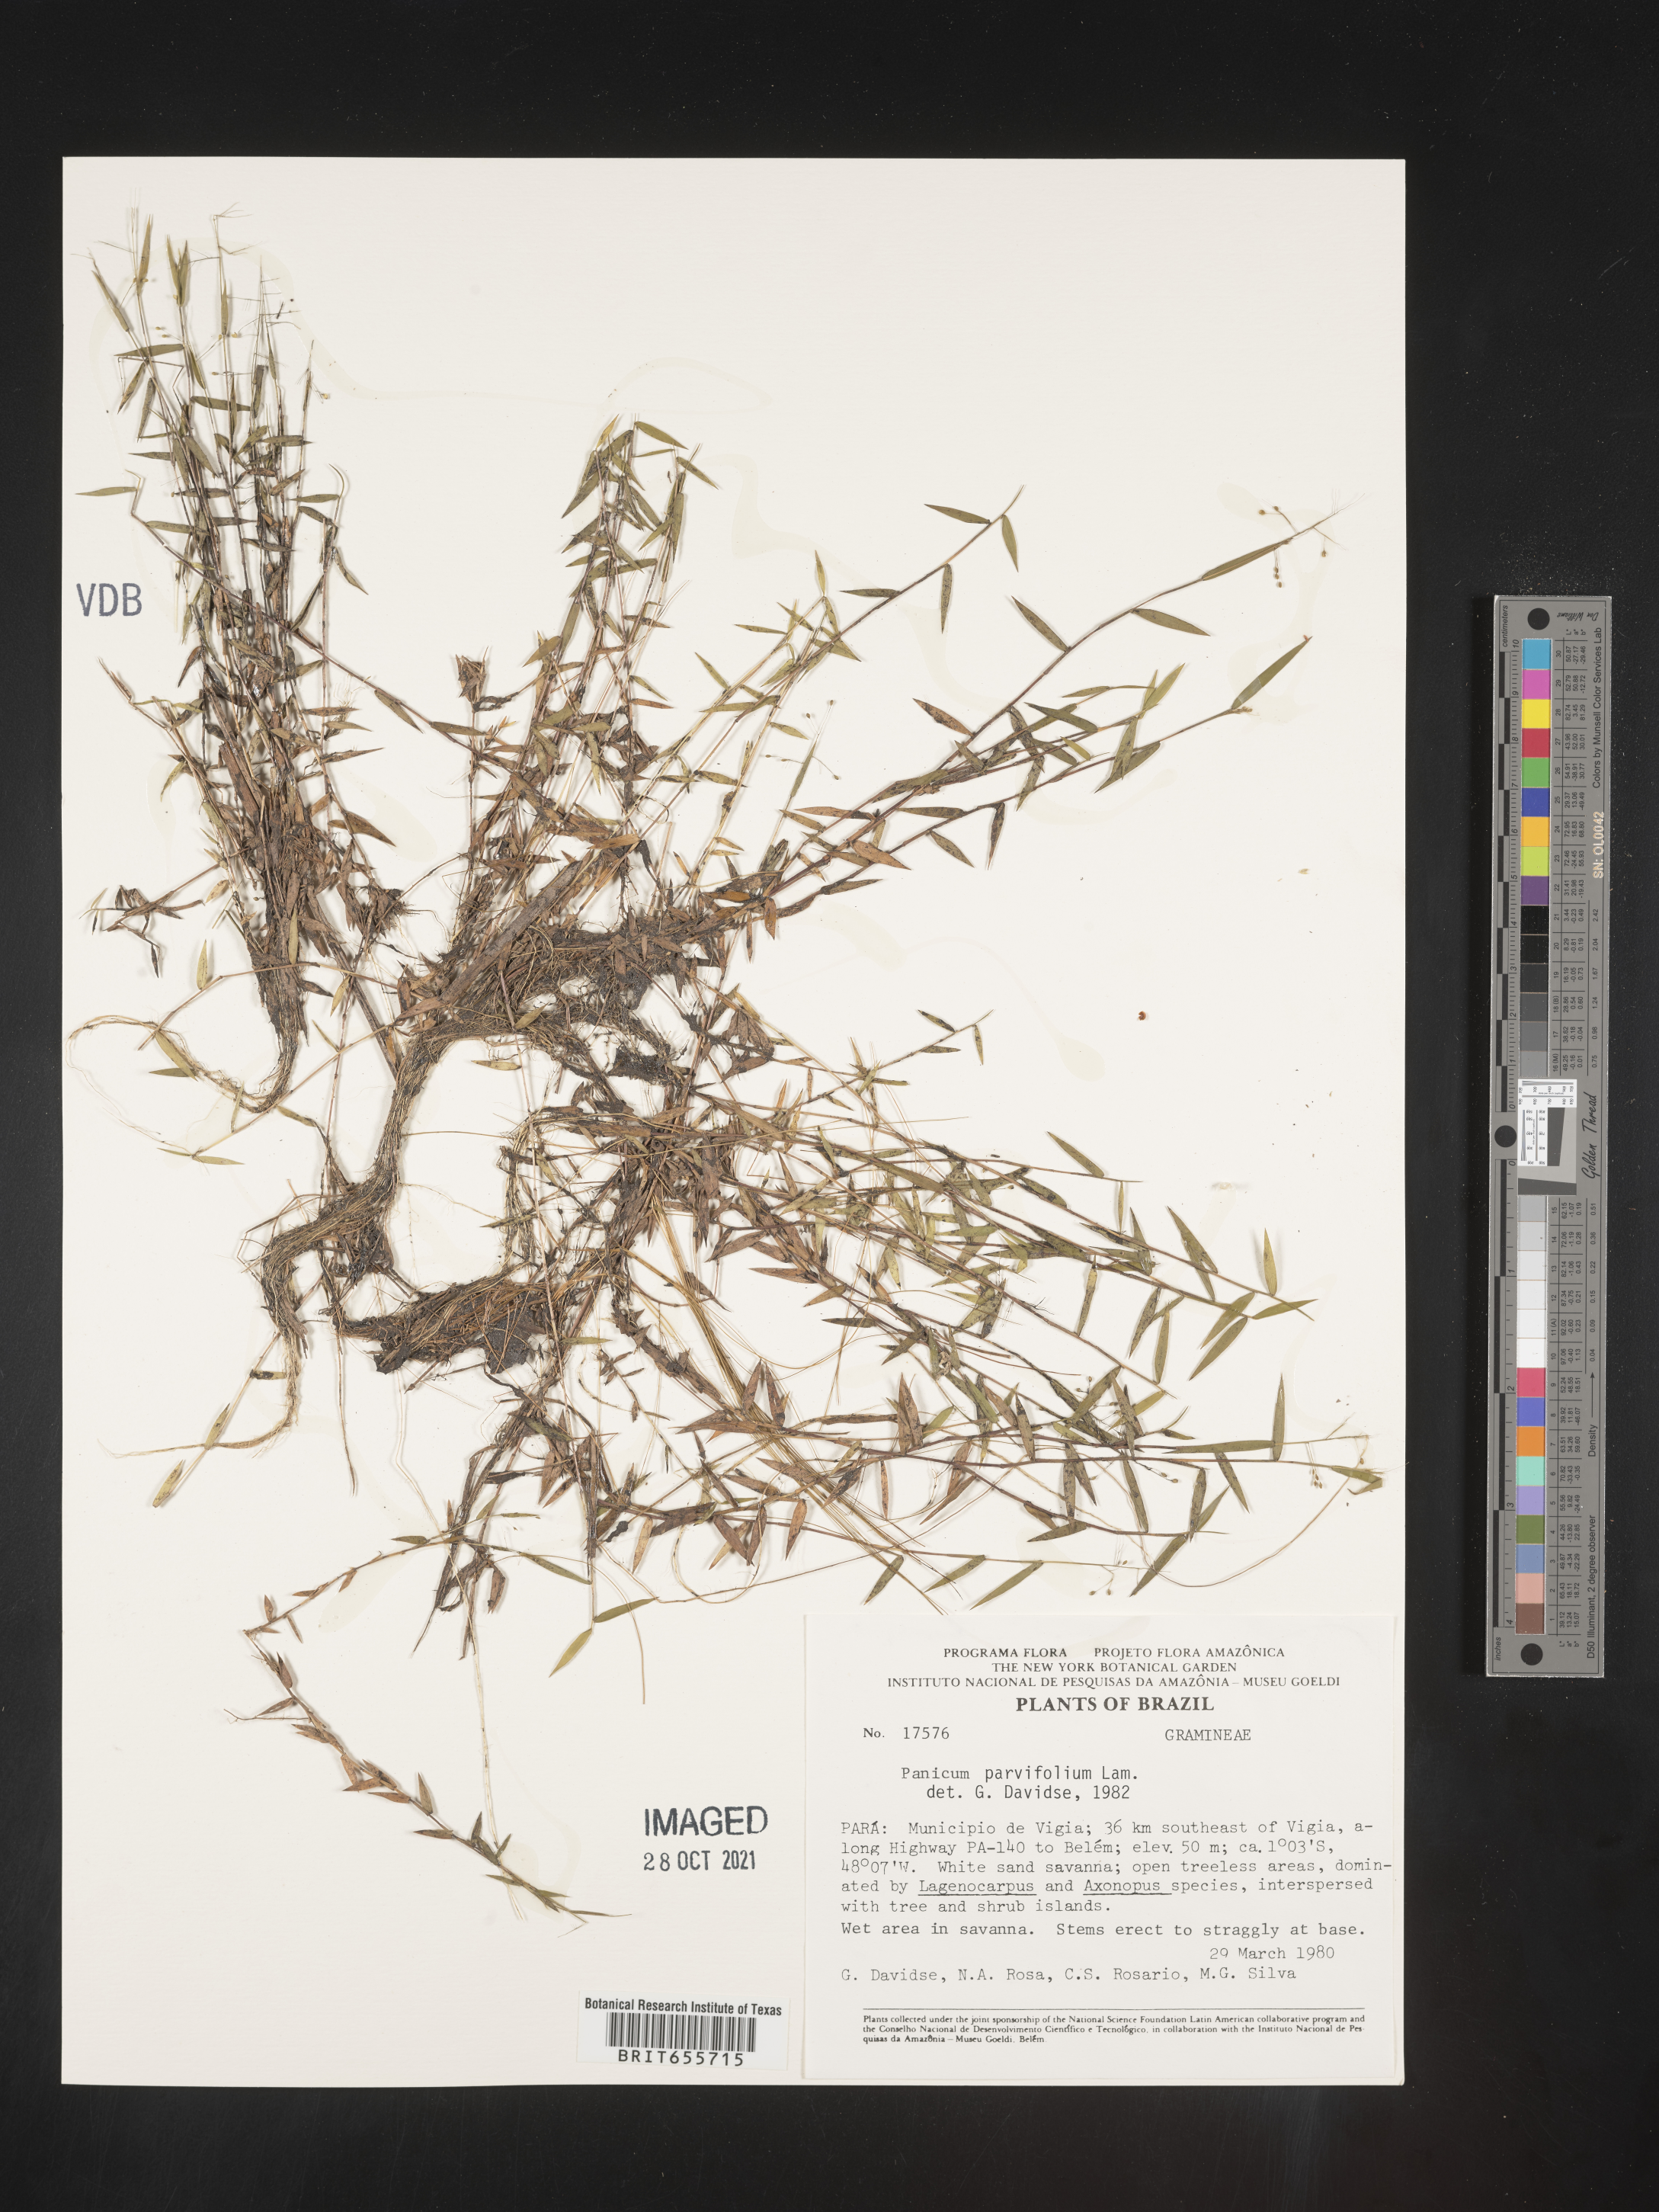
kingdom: Plantae
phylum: Tracheophyta
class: Liliopsida
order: Poales
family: Poaceae
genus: Panicum
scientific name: Panicum
